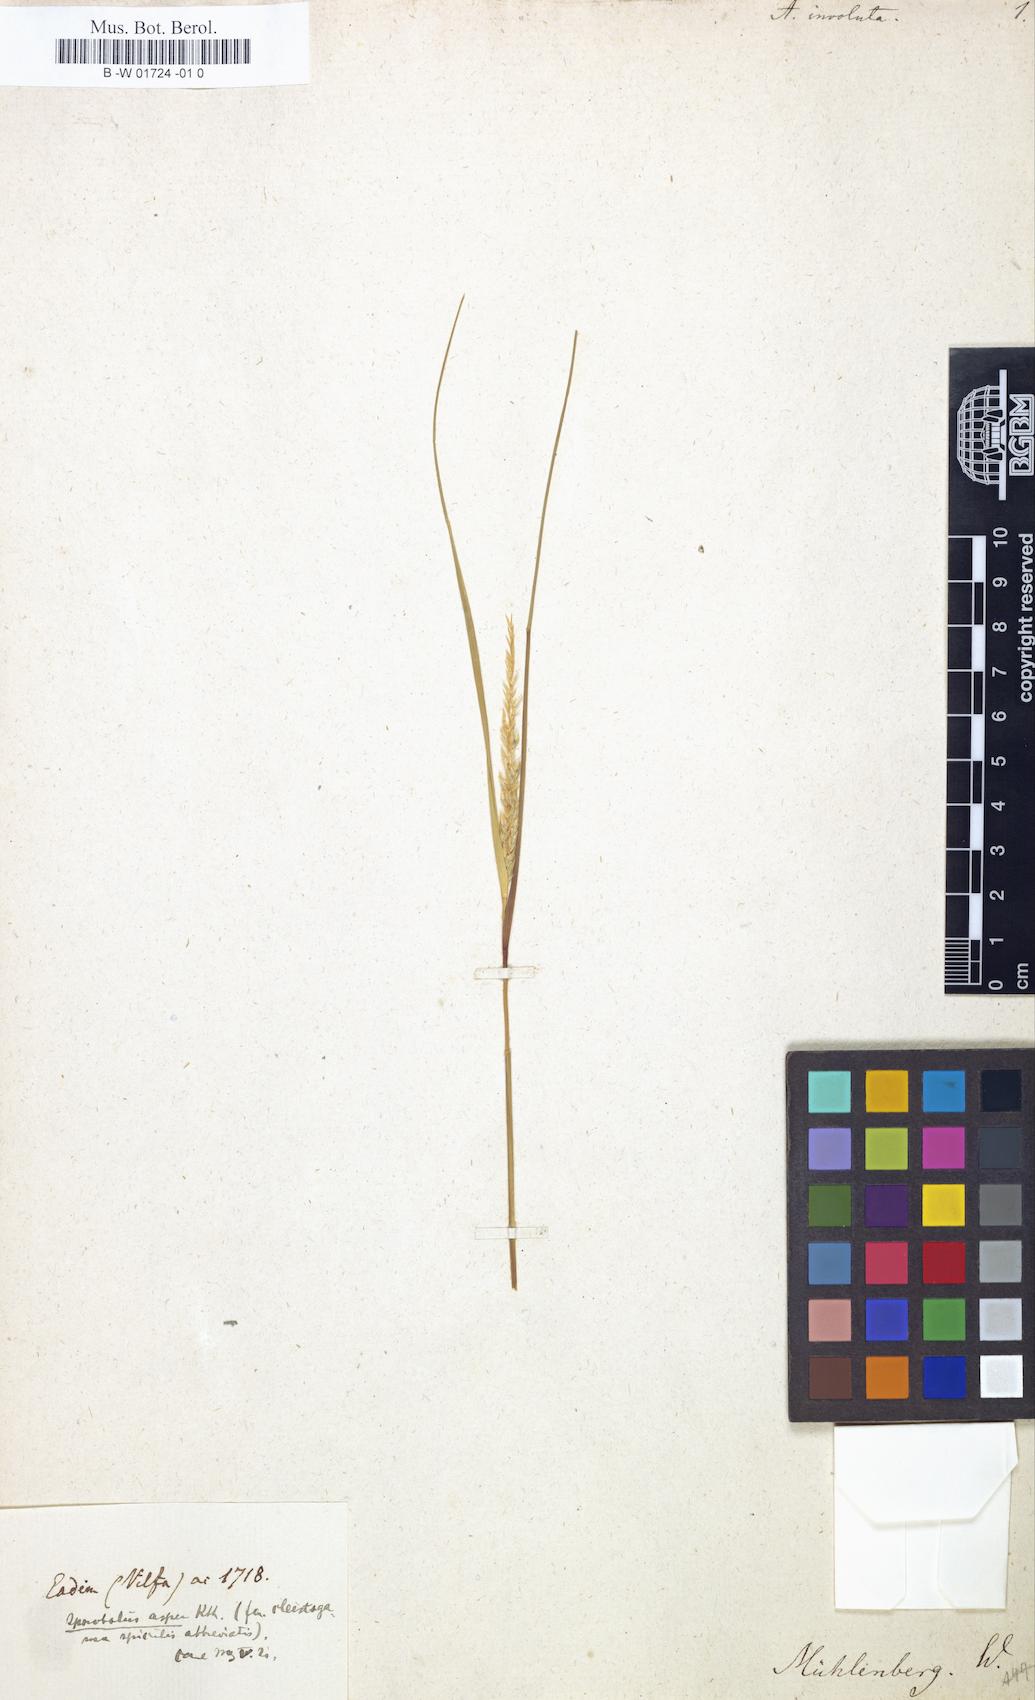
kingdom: Plantae
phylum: Tracheophyta
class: Liliopsida
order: Poales
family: Poaceae
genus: Sporobolus
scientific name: Sporobolus
